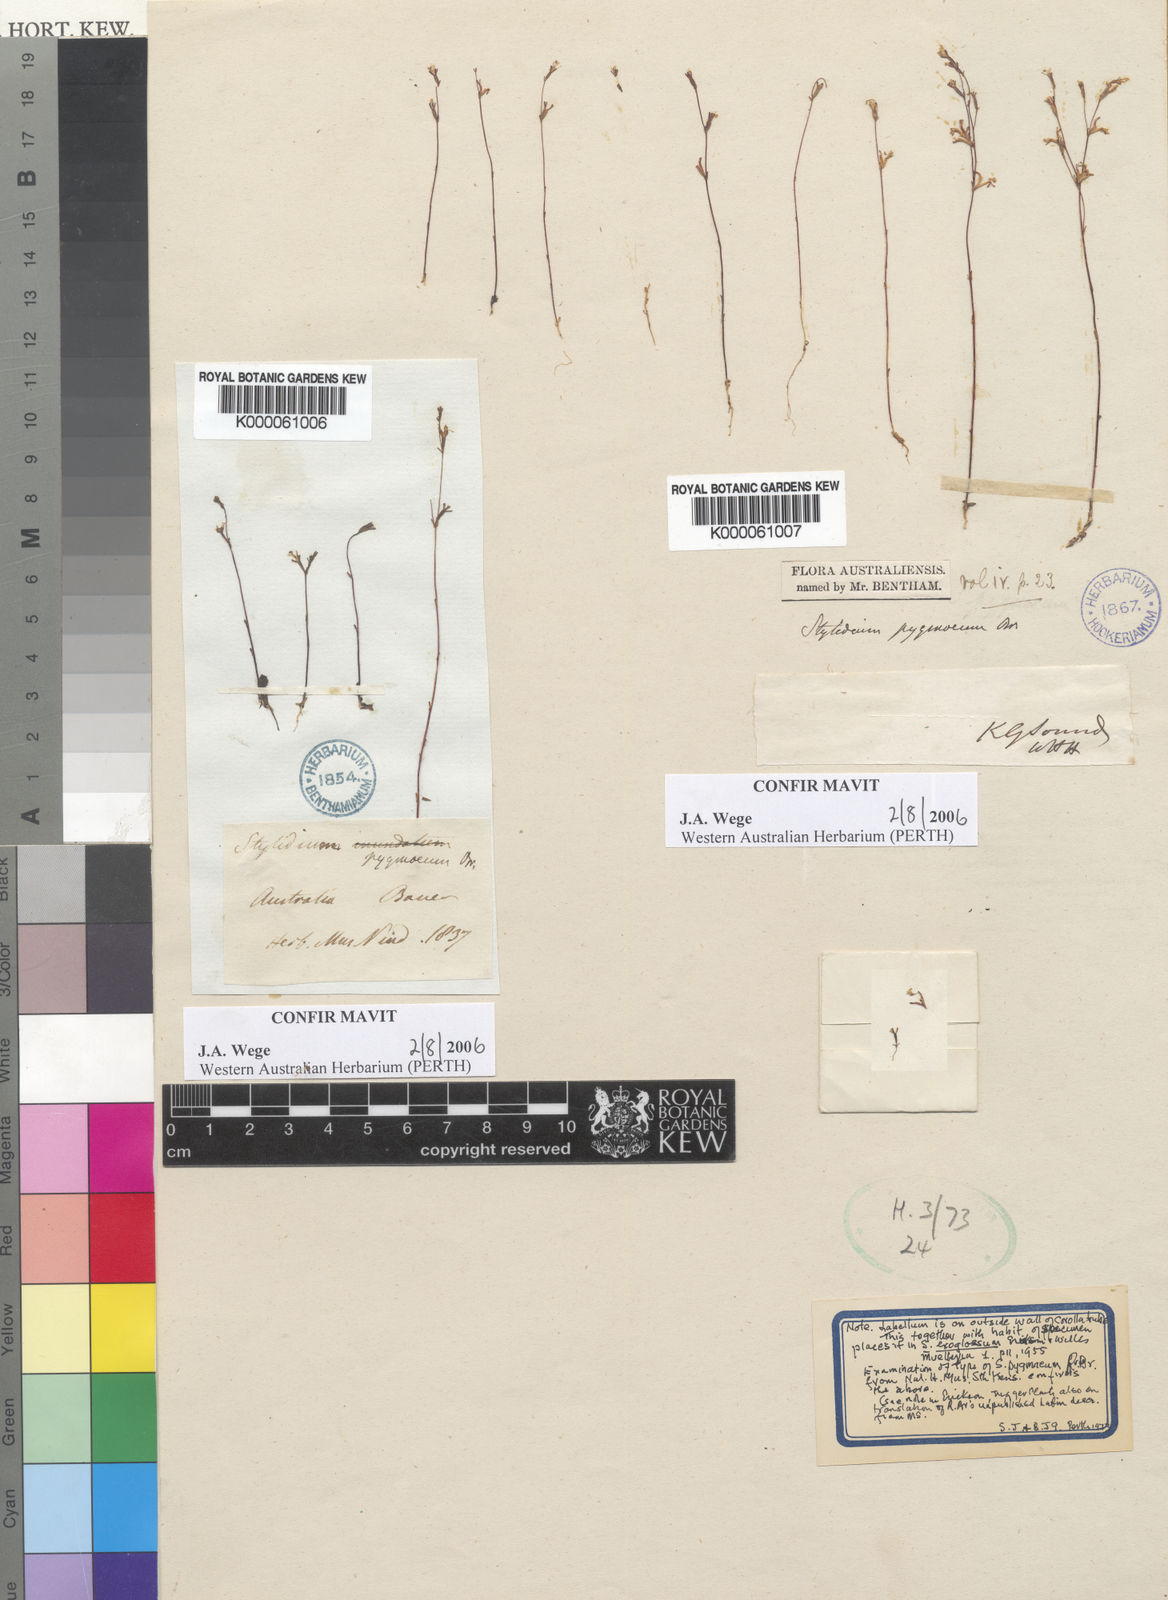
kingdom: Plantae
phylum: Tracheophyta
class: Magnoliopsida
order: Asterales
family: Stylidiaceae
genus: Stylidium
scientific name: Stylidium pygmaeum
